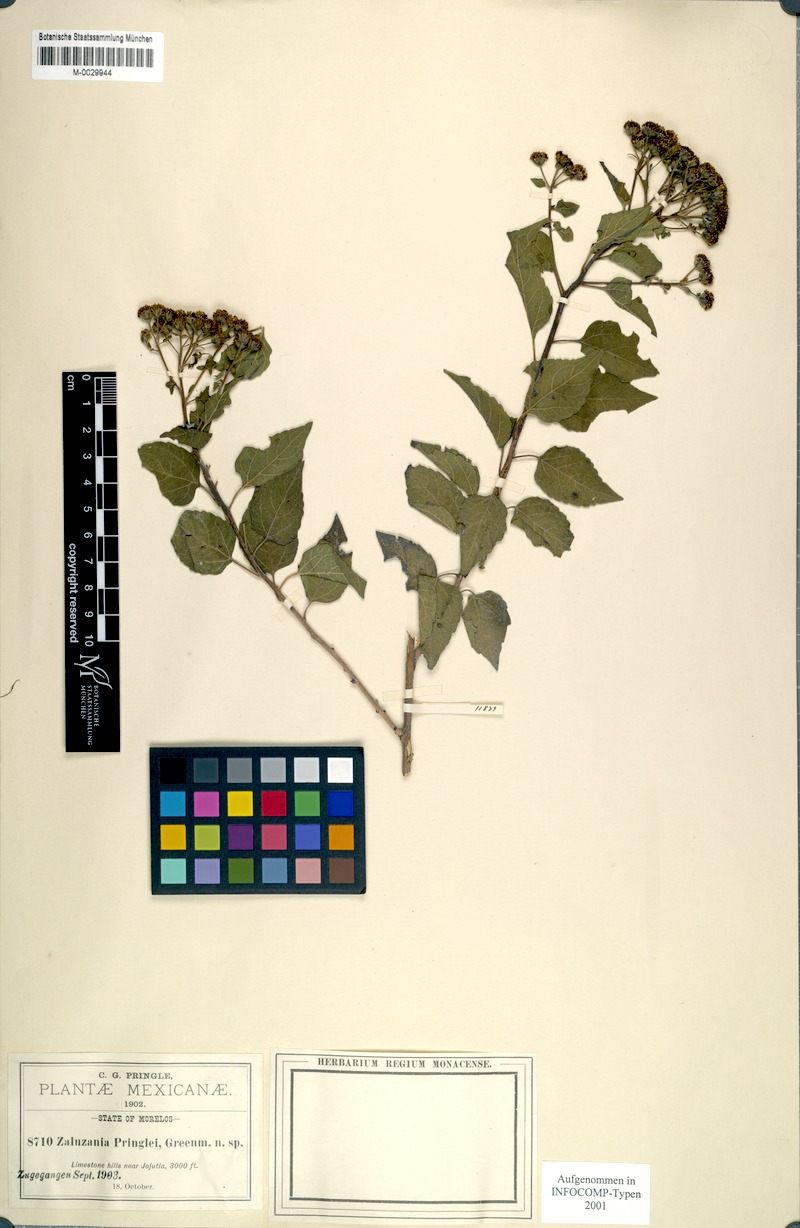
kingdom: Plantae
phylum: Tracheophyta
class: Magnoliopsida
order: Asterales
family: Asteraceae
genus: Zaluzania
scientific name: Zaluzania pringlei
